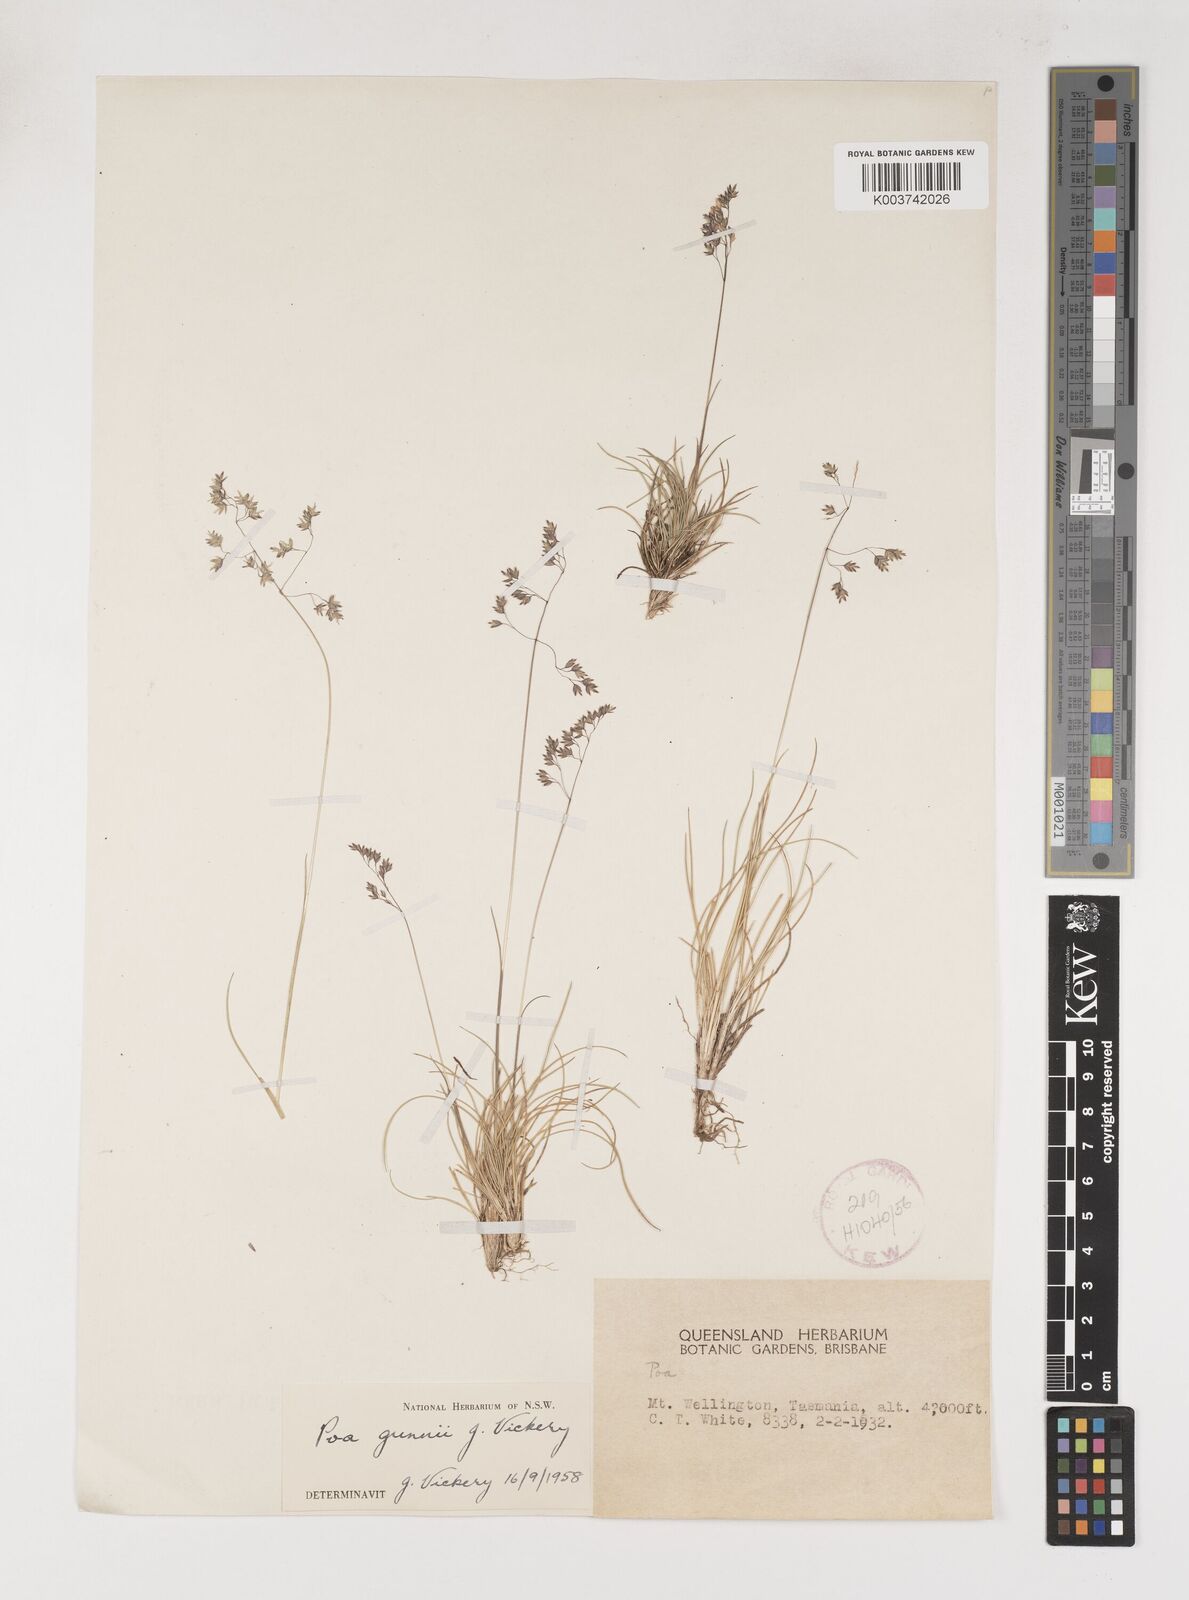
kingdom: Plantae
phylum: Tracheophyta
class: Liliopsida
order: Poales
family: Poaceae
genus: Poa
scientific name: Poa gunnii
